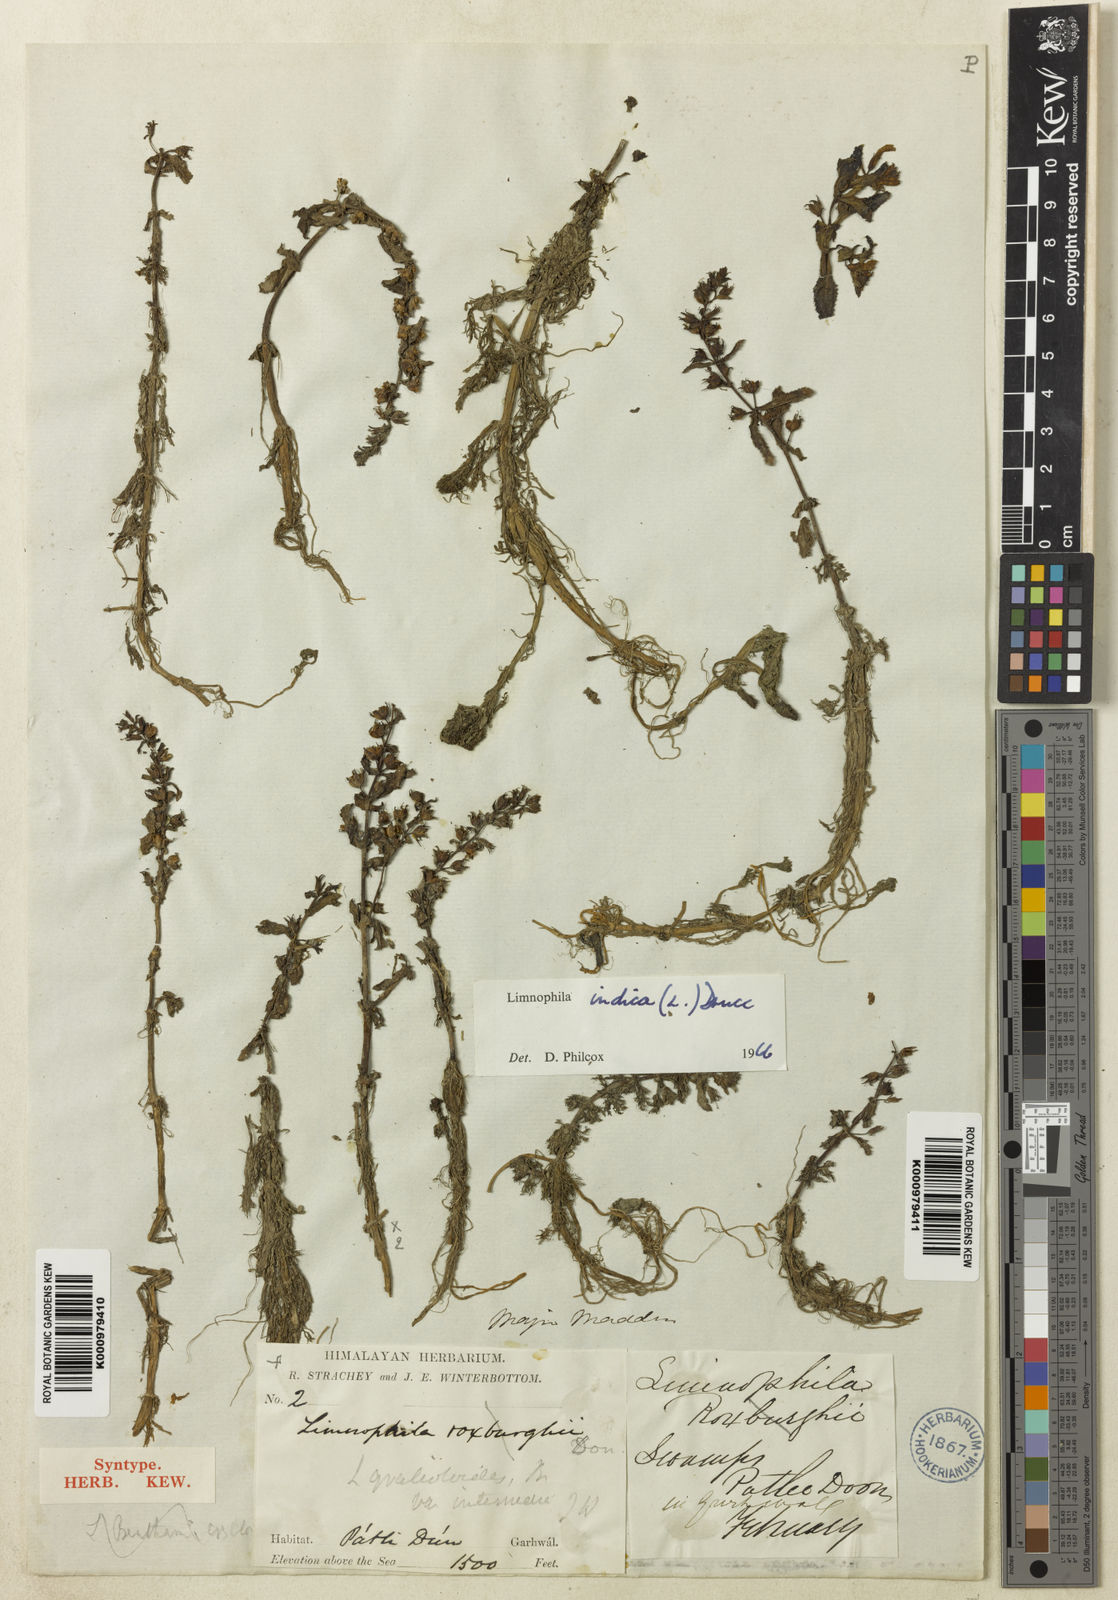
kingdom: Plantae
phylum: Tracheophyta
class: Magnoliopsida
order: Lamiales
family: Plantaginaceae
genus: Limnophila
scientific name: Limnophila indica
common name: Indian marshweed
